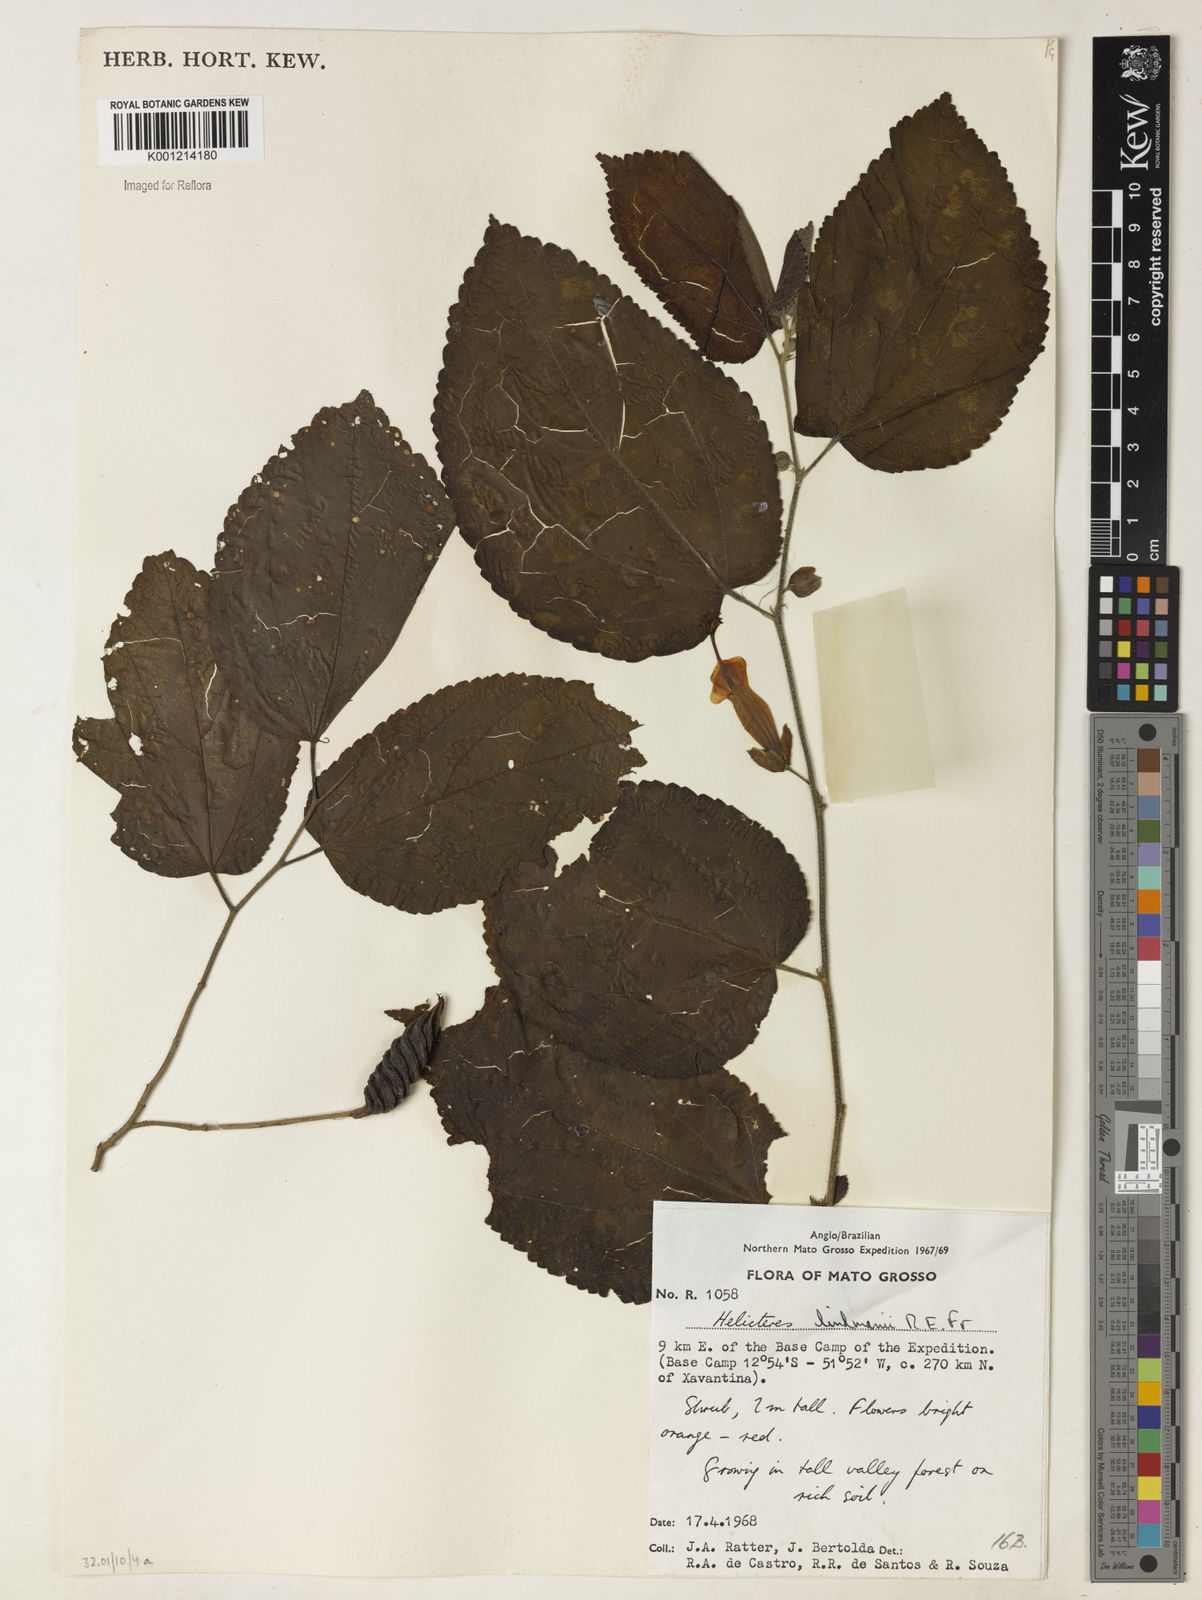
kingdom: Plantae
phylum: Tracheophyta
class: Magnoliopsida
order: Malvales
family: Malvaceae
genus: Helicteres
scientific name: Helicteres corylifolia
